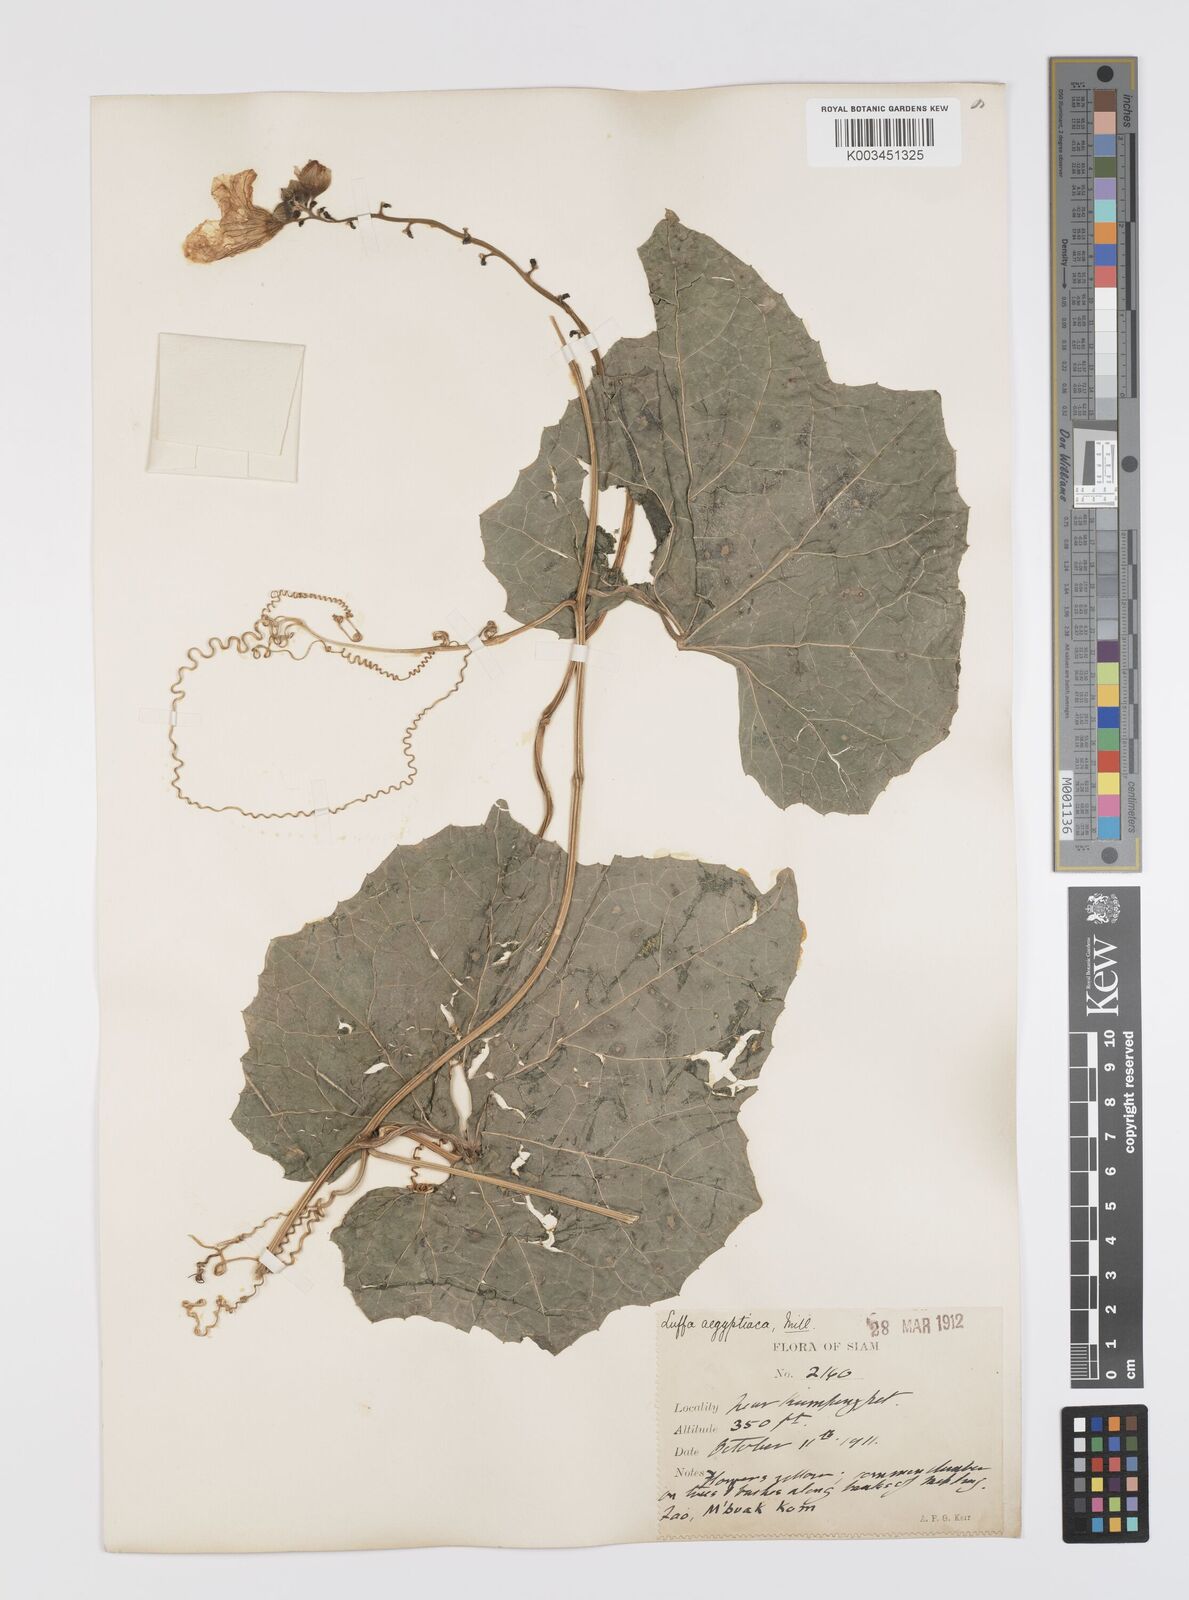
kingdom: Plantae
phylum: Tracheophyta
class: Magnoliopsida
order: Cucurbitales
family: Cucurbitaceae
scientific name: Cucurbitaceae
